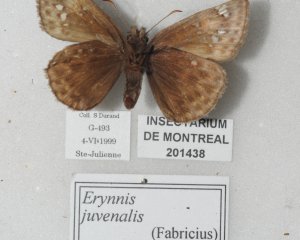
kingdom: Animalia
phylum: Arthropoda
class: Insecta
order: Lepidoptera
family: Hesperiidae
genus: Gesta
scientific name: Gesta
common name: Juvenal's Duskywing
